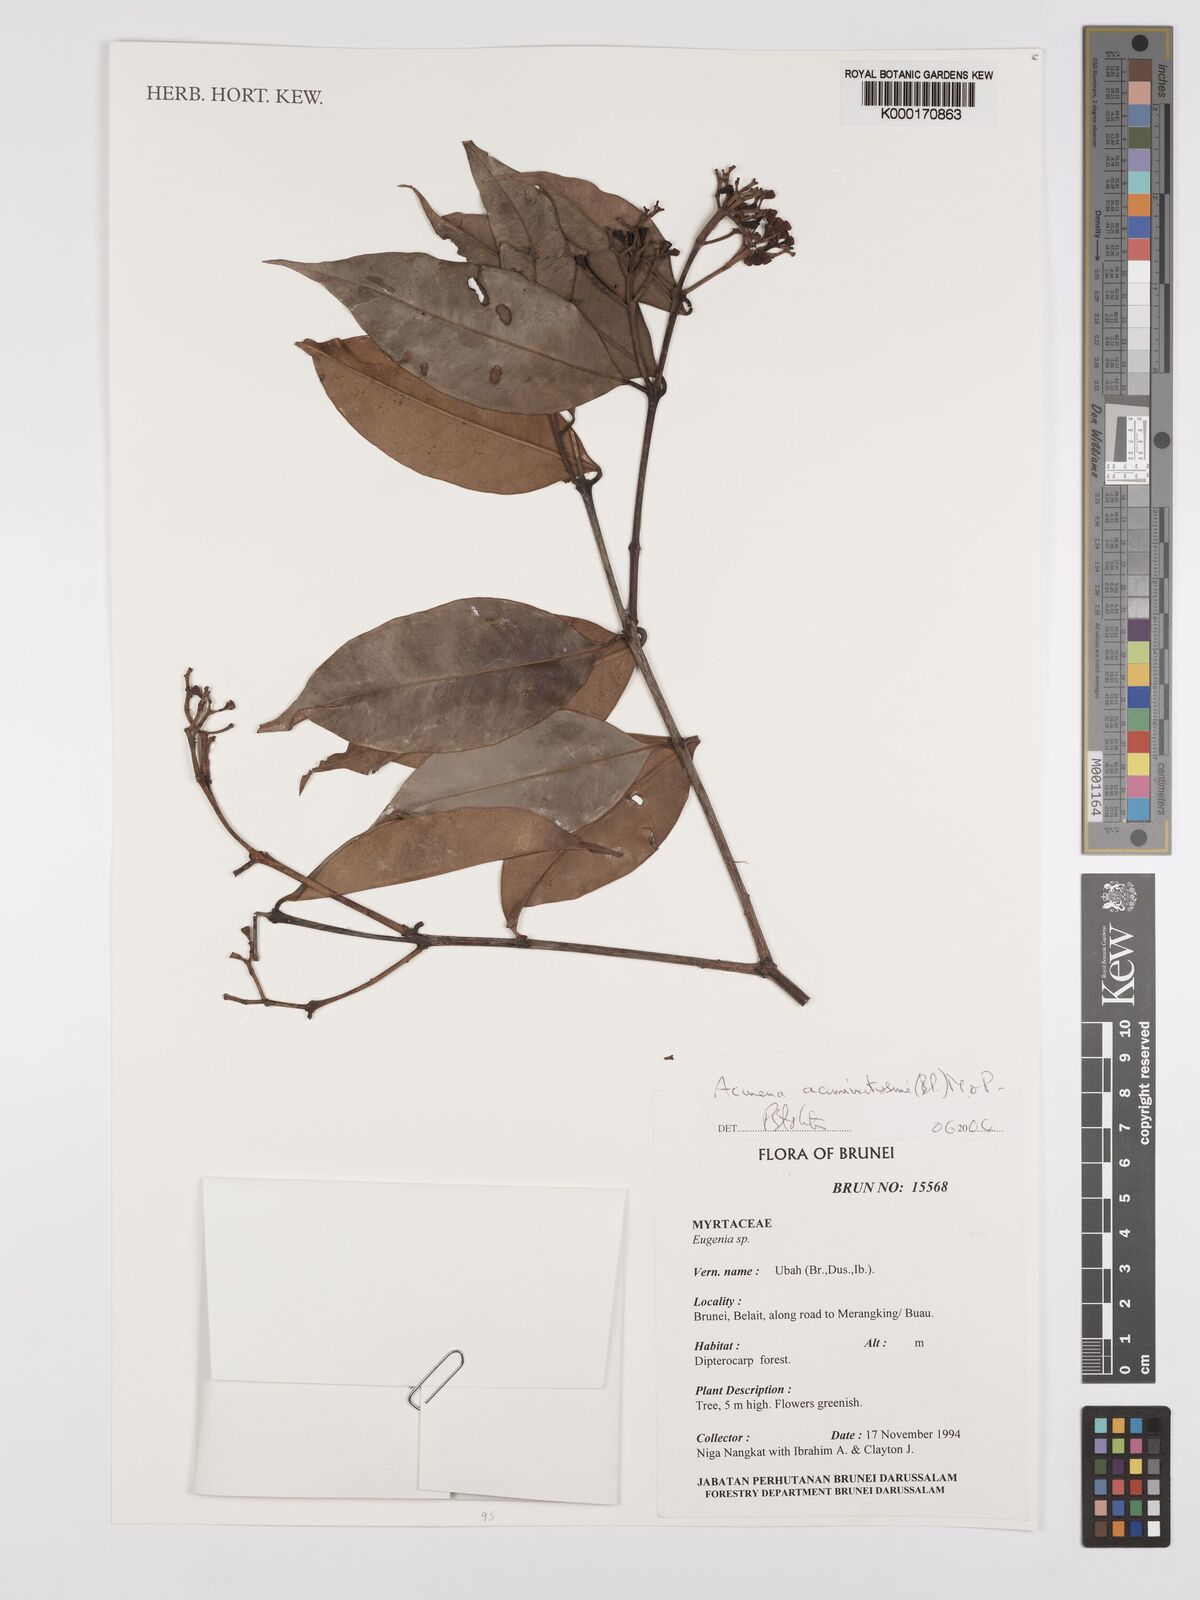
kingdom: Plantae
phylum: Tracheophyta
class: Magnoliopsida
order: Myrtales
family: Myrtaceae
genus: Syzygium
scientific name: Syzygium acuminatissimum
